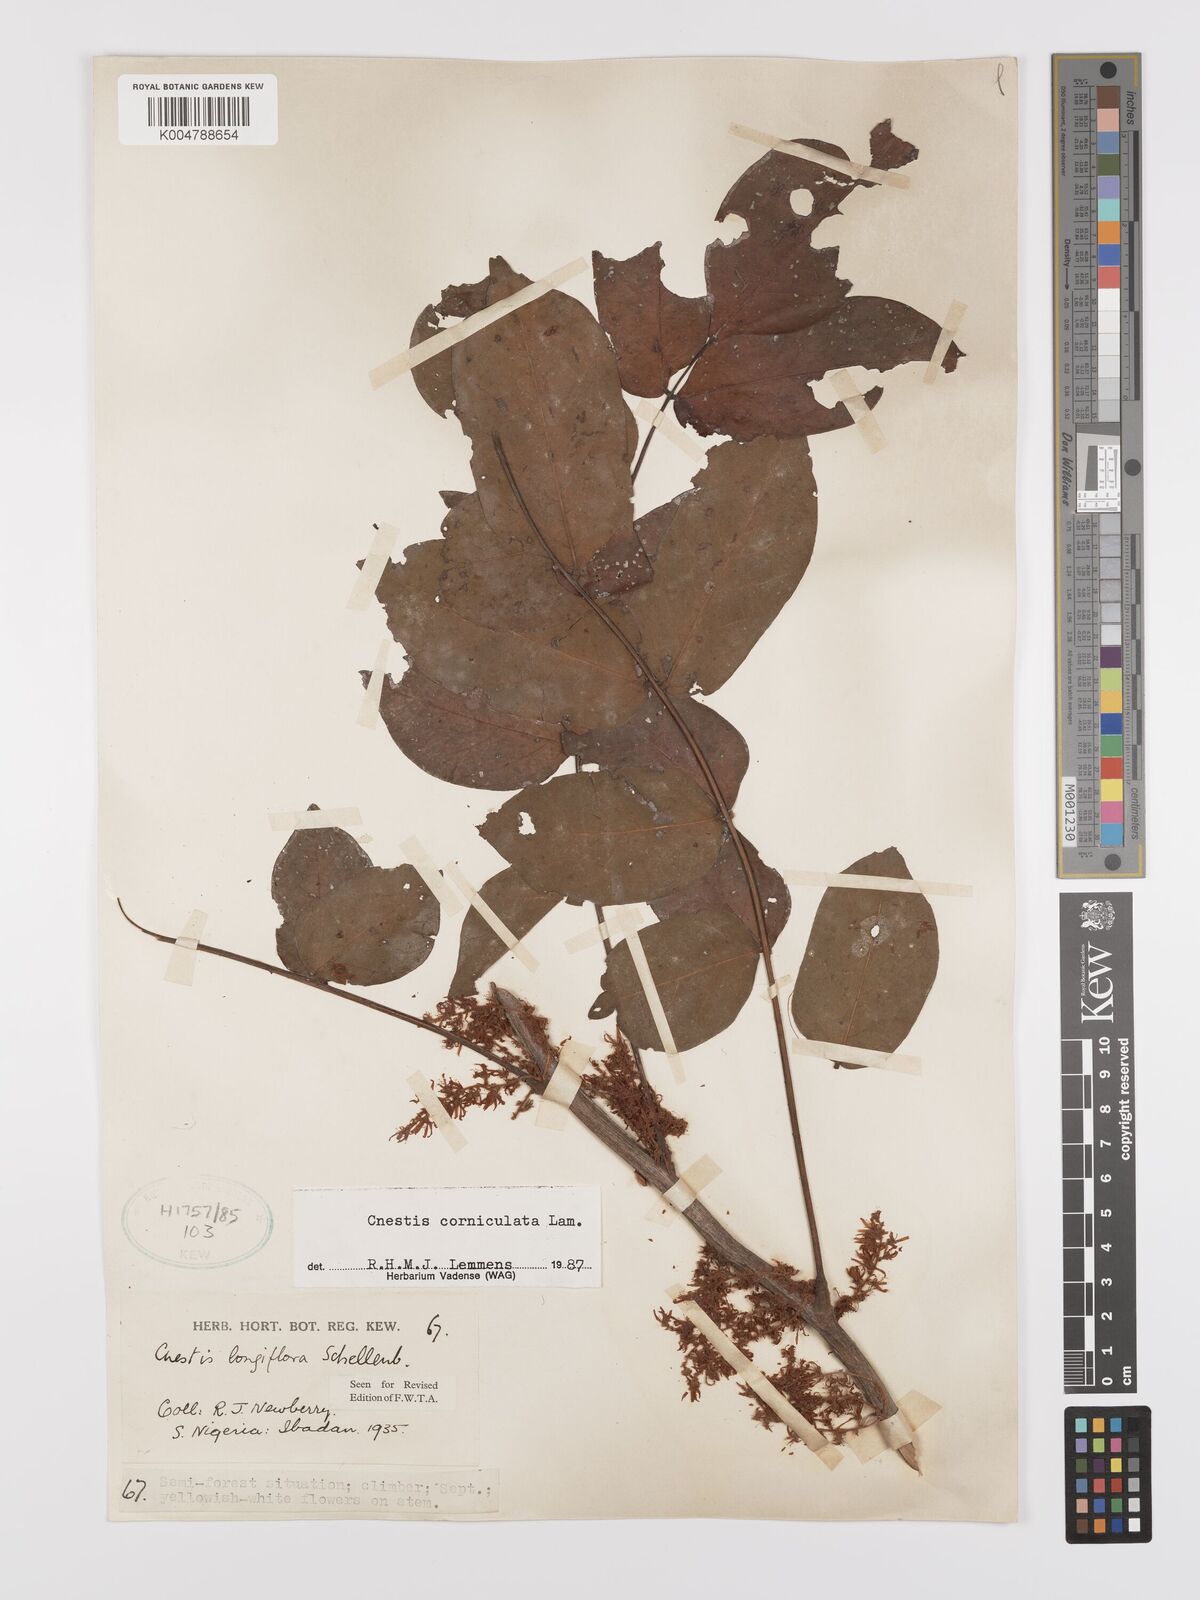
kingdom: Plantae
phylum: Tracheophyta
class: Magnoliopsida
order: Oxalidales
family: Connaraceae
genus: Cnestis
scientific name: Cnestis corniculata
